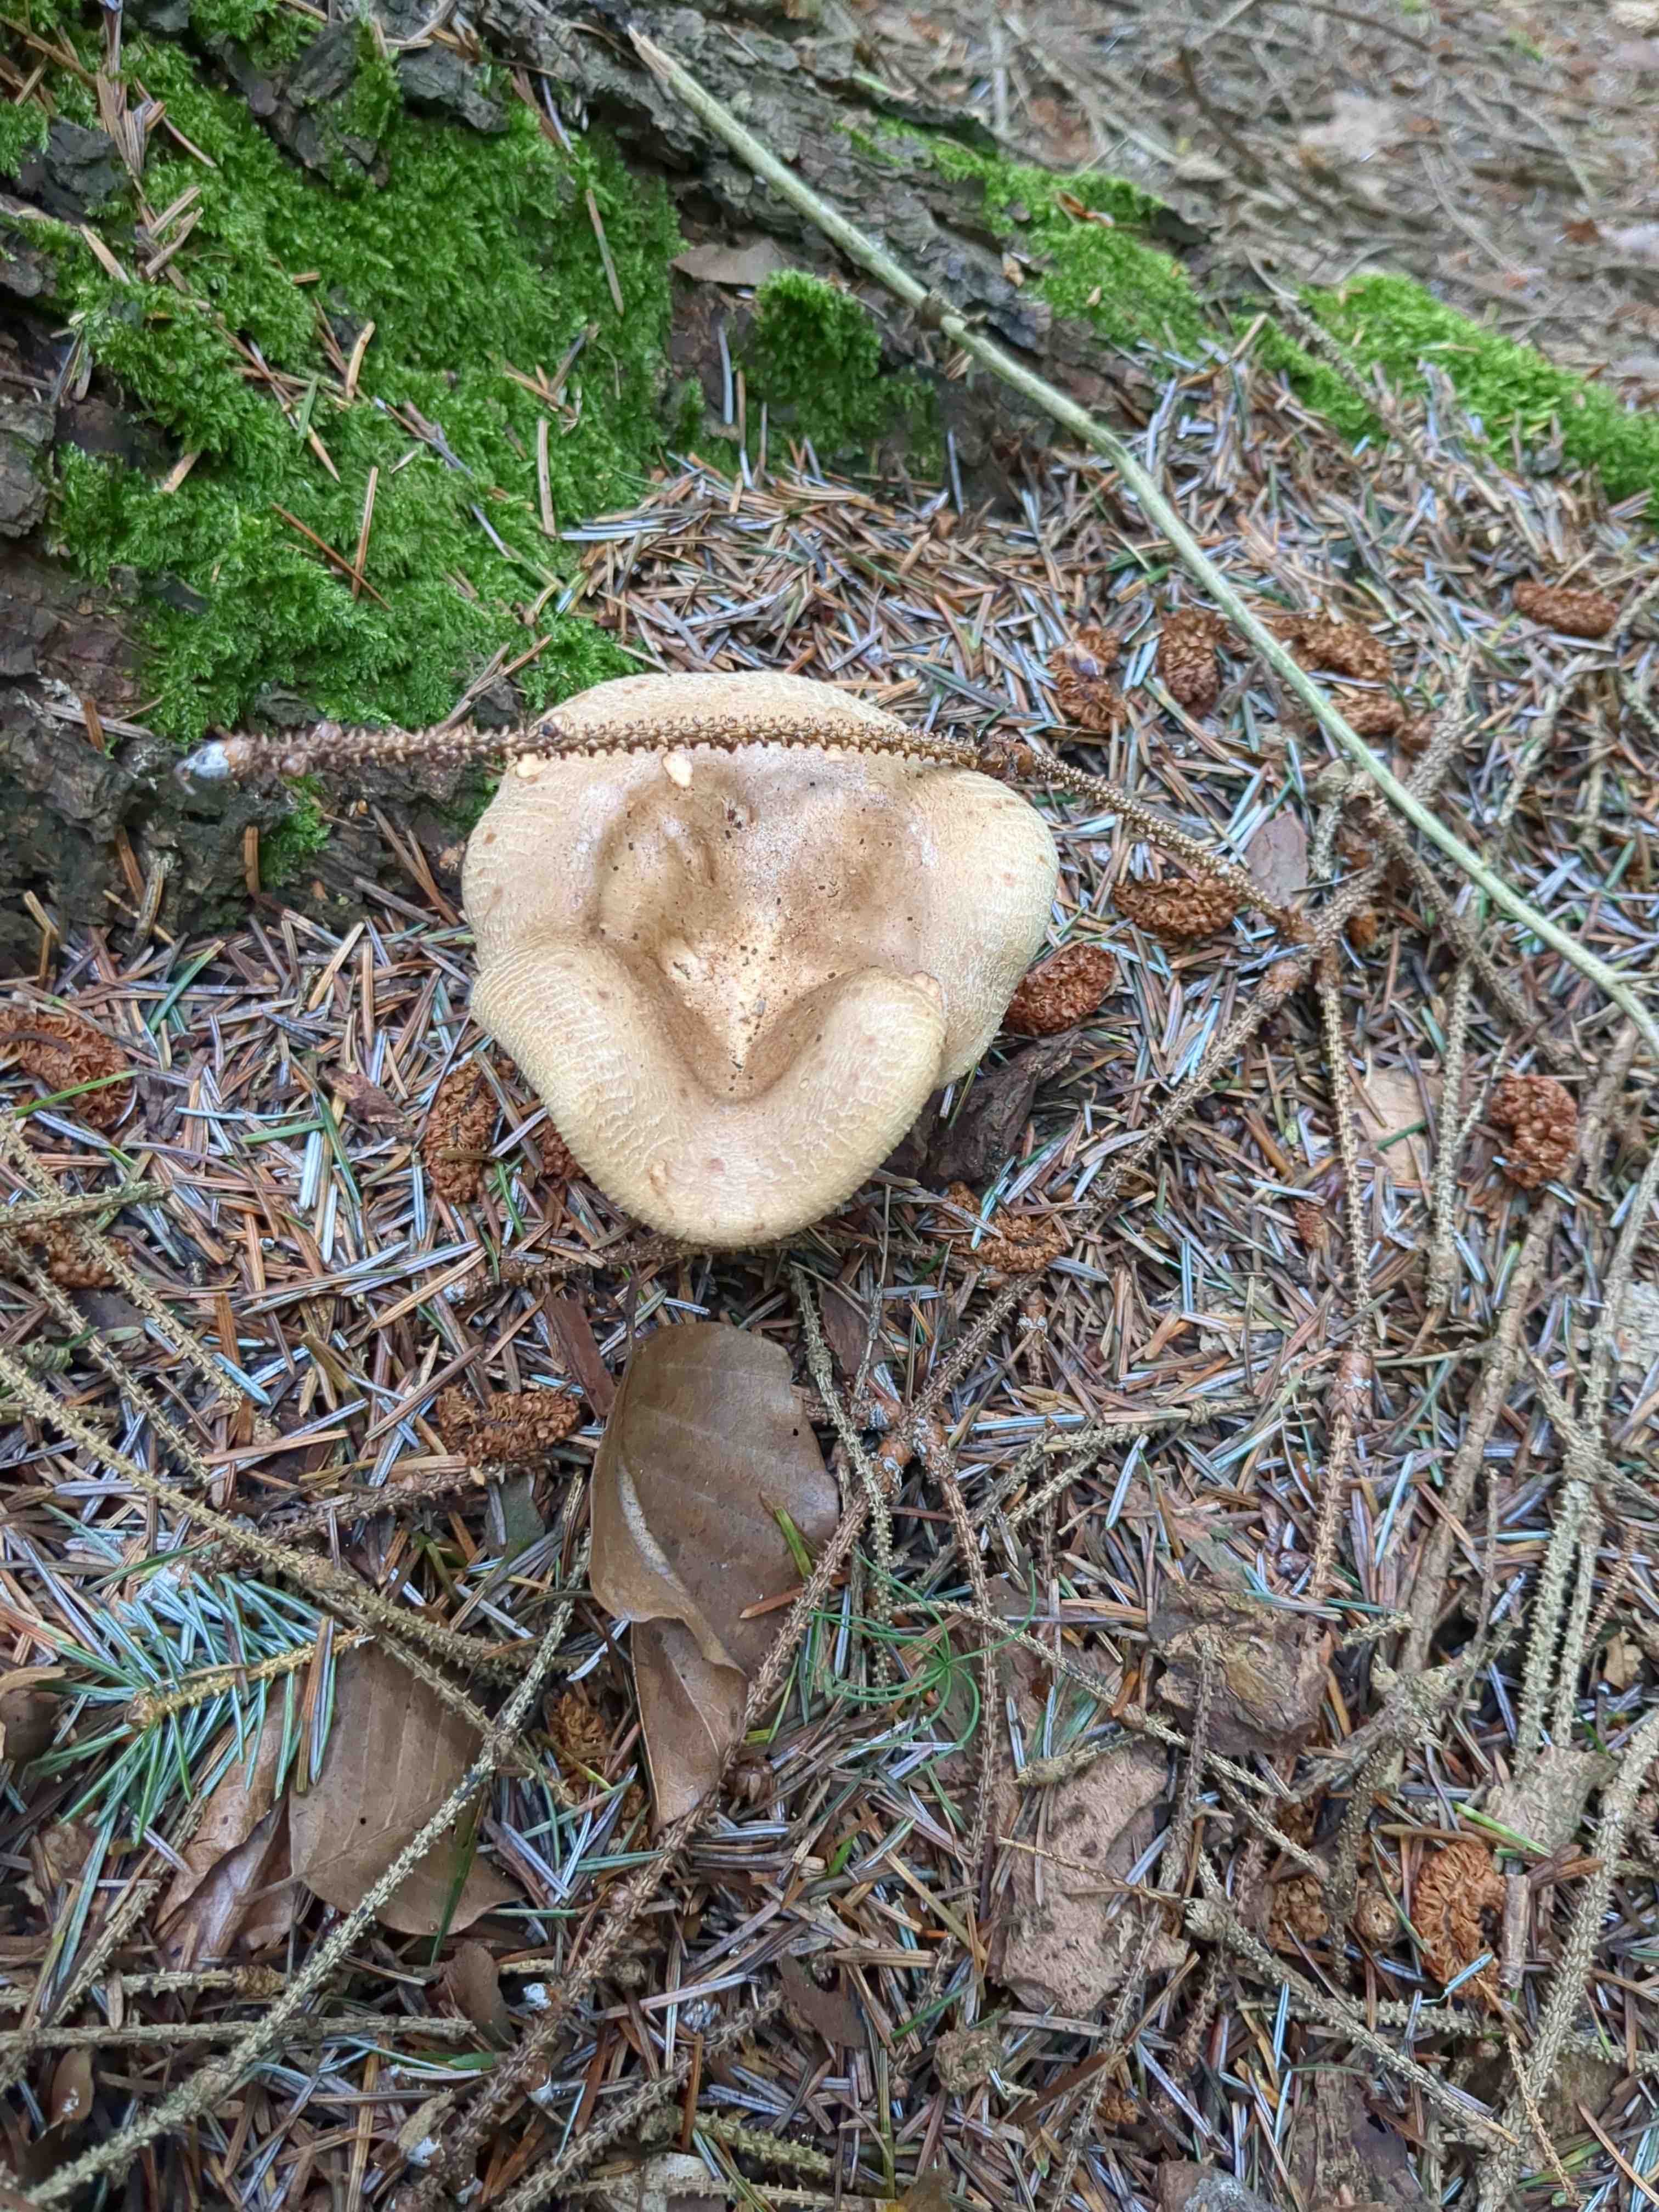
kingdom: Fungi
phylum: Basidiomycota
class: Agaricomycetes
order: Boletales
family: Paxillaceae
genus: Paxillus
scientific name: Paxillus involutus
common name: almindelig netbladhat
